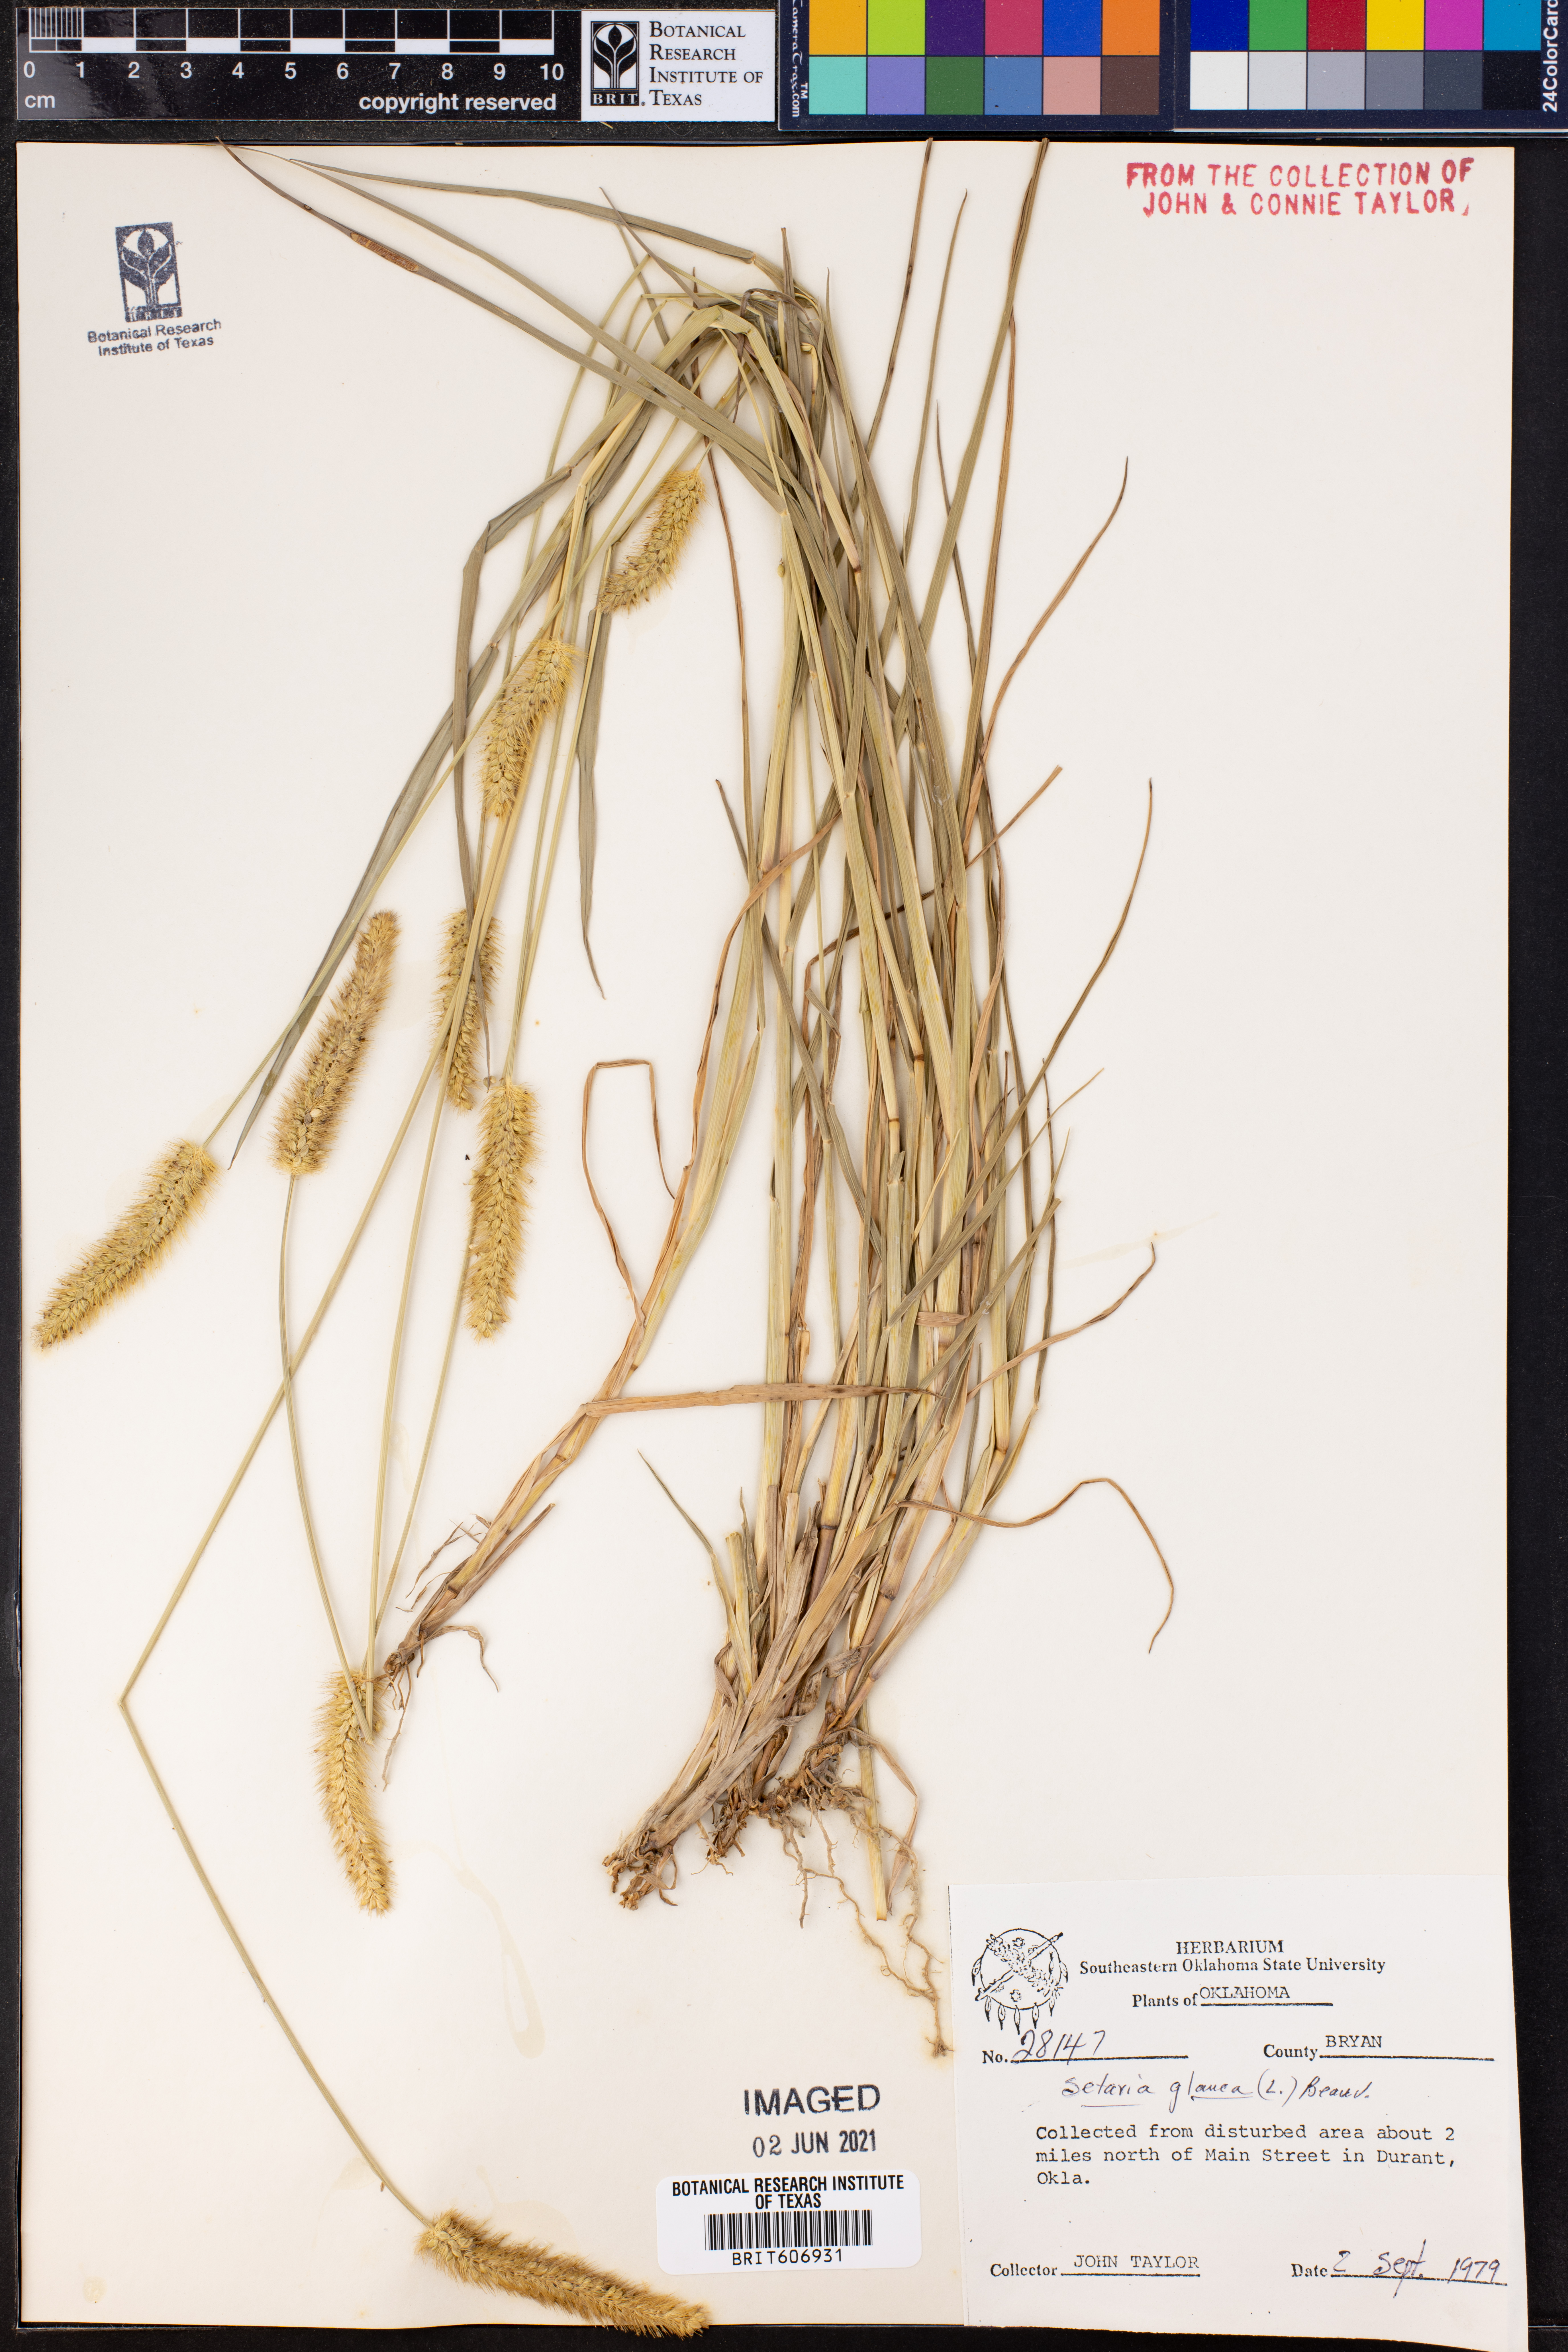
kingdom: Plantae
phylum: Tracheophyta
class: Liliopsida
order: Poales
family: Poaceae
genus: Cenchrus
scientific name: Cenchrus americanus
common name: Pearl millet
